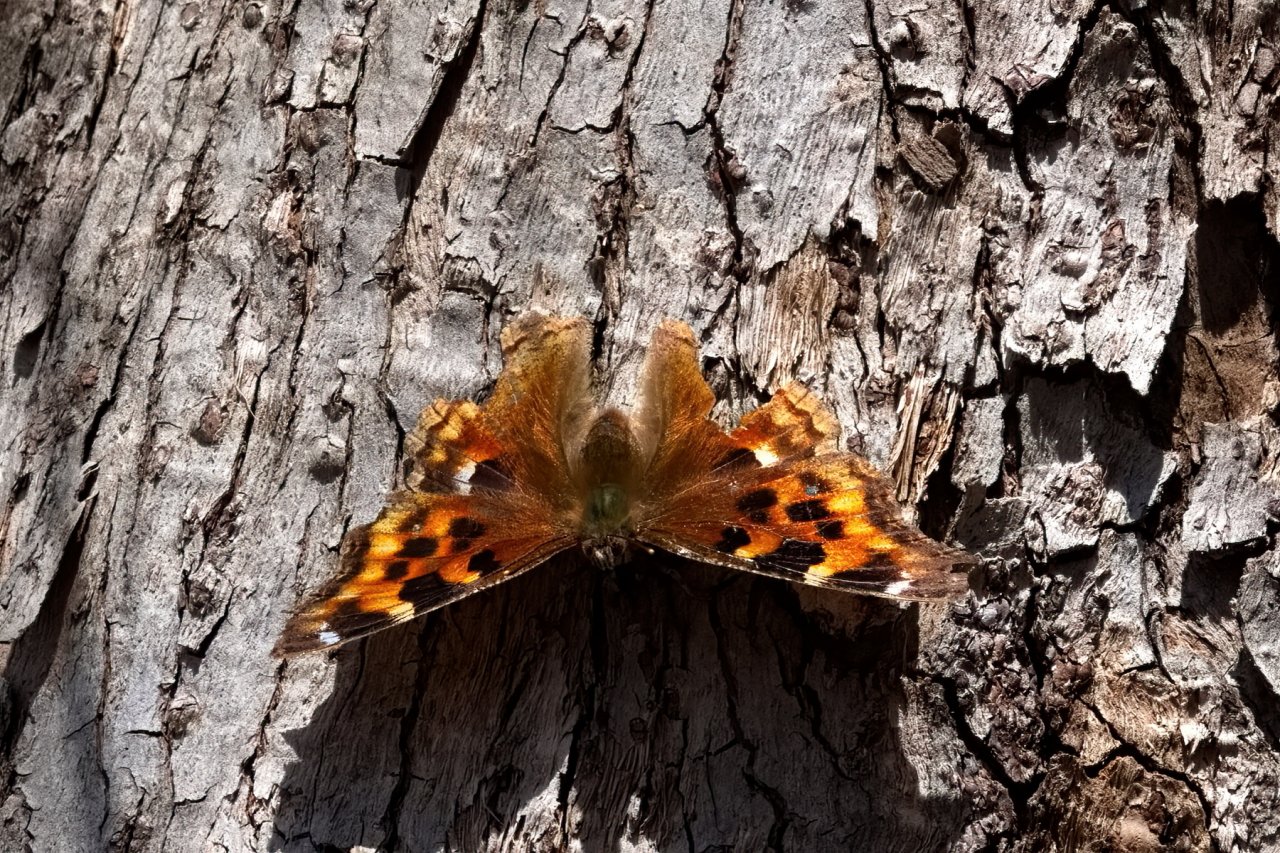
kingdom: Animalia
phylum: Arthropoda
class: Insecta
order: Lepidoptera
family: Nymphalidae
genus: Polygonia
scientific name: Polygonia vaualbum
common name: Compton Tortoiseshell
